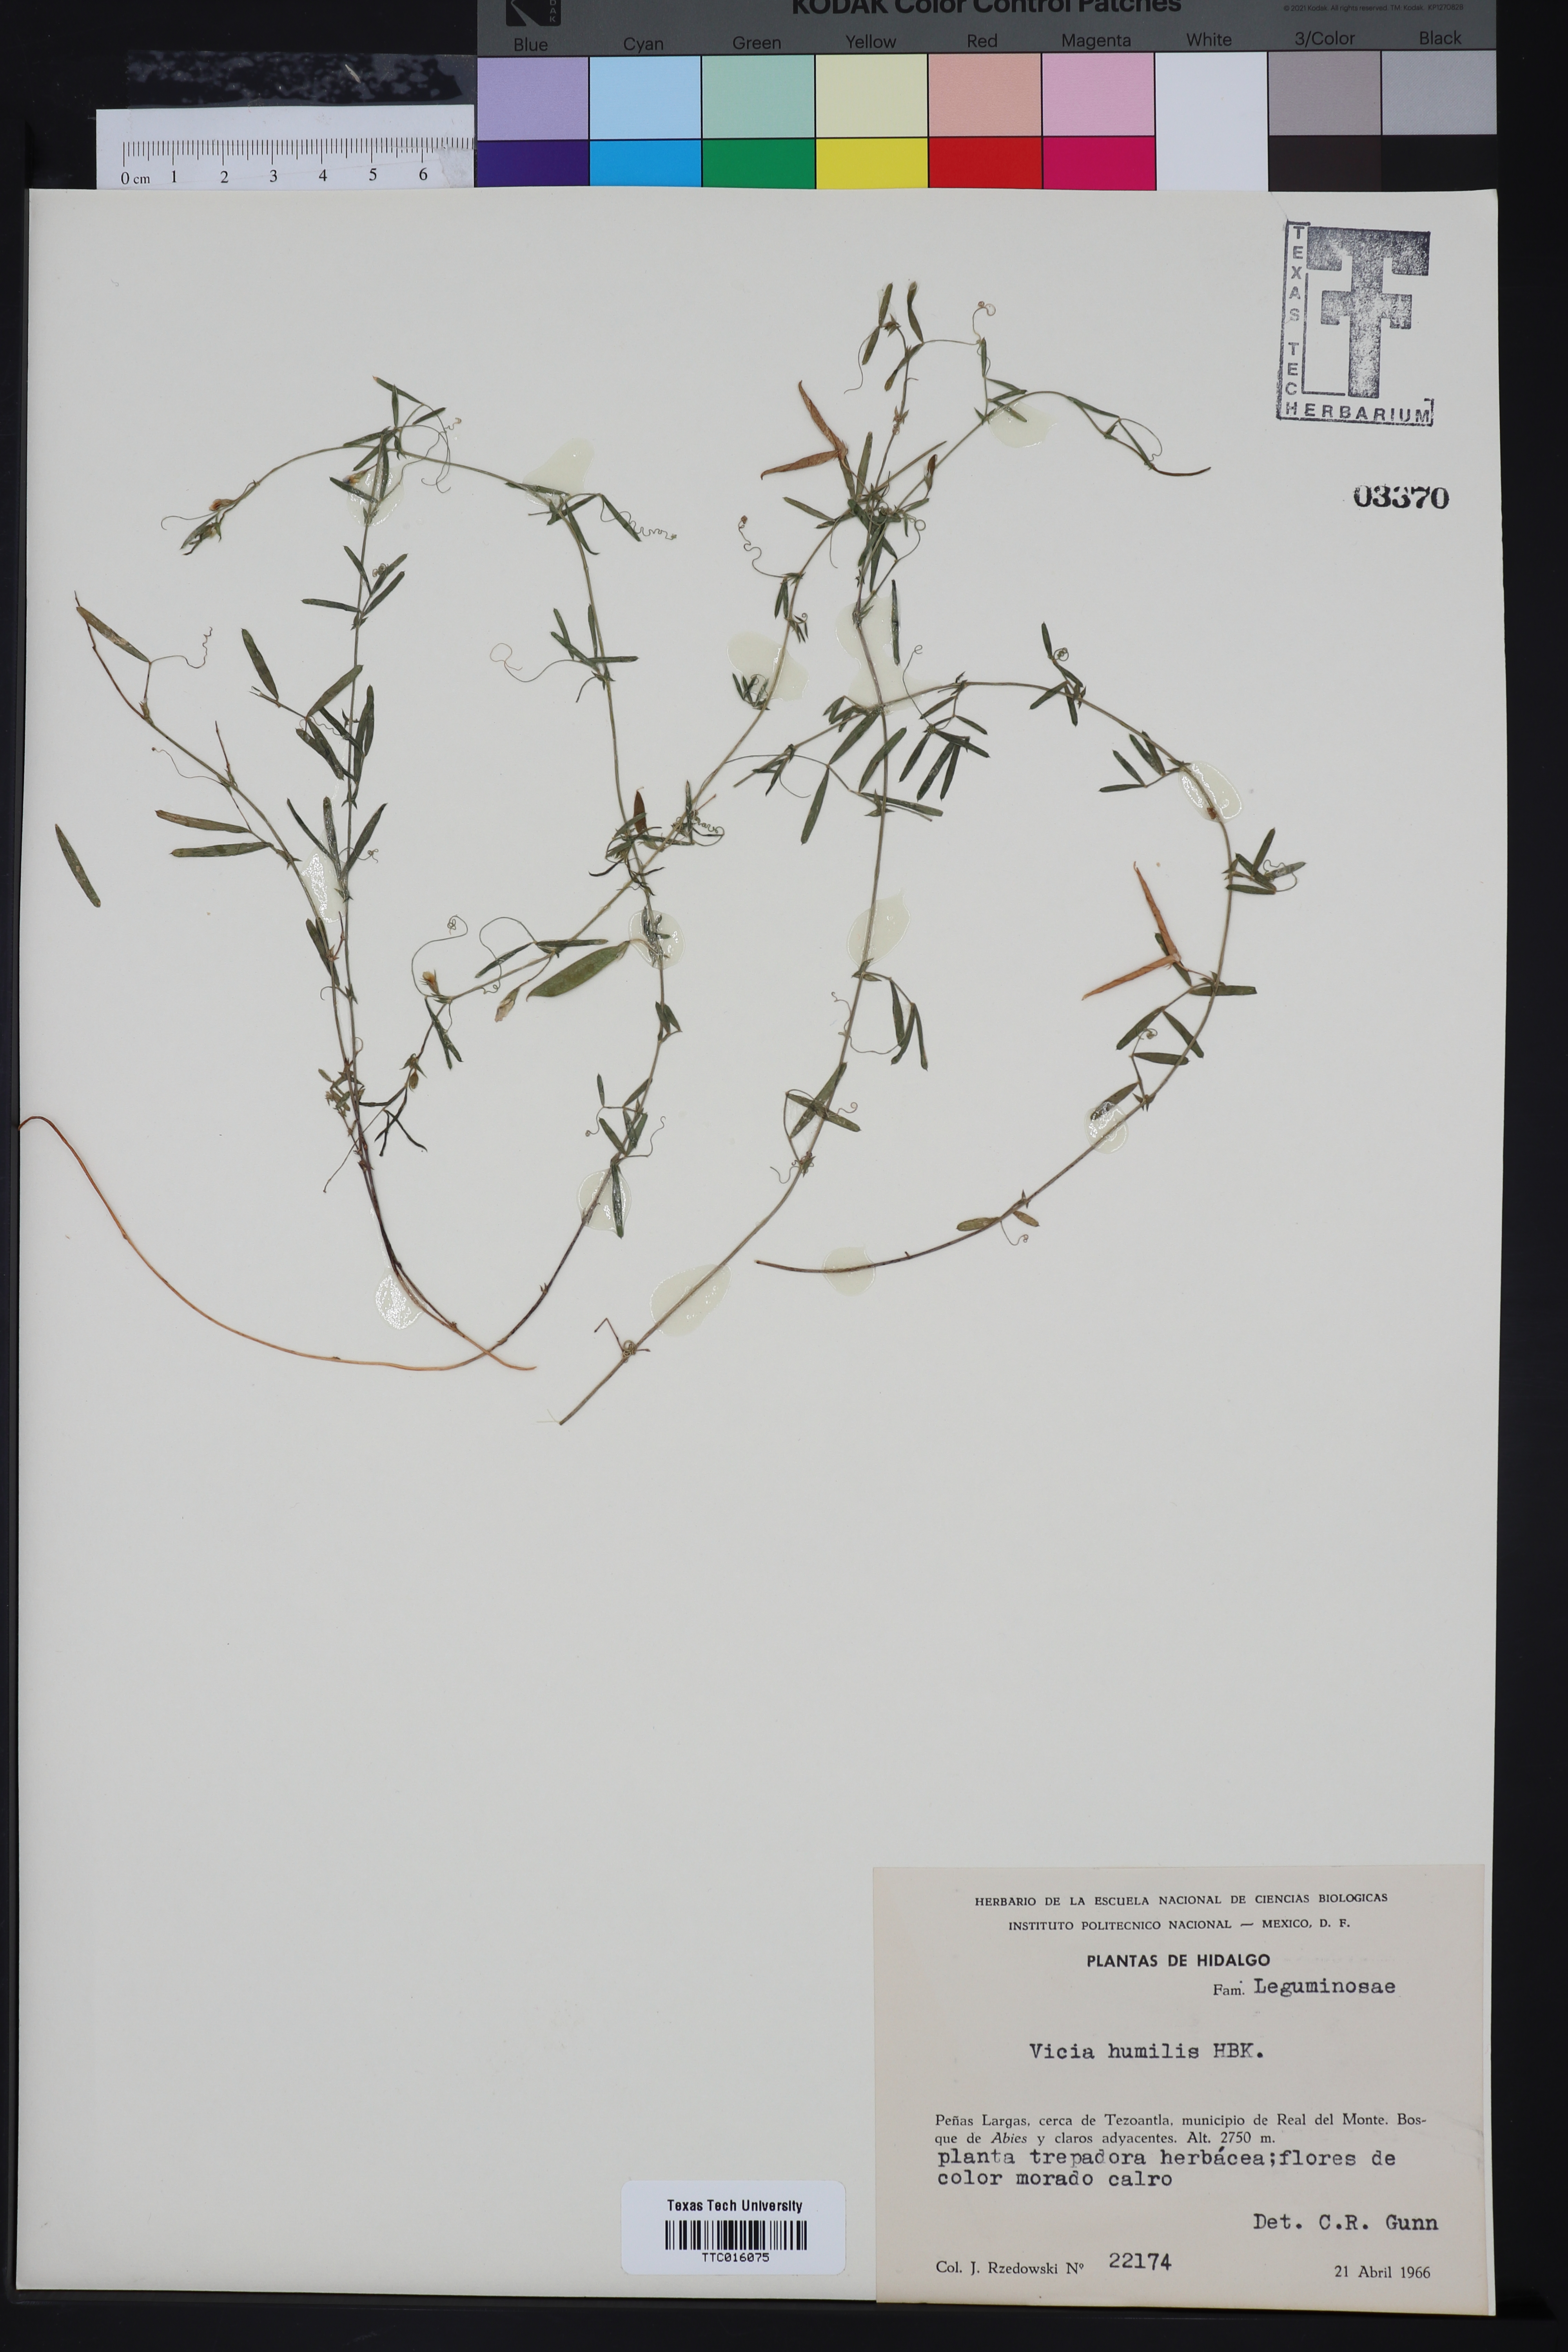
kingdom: Plantae
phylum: Tracheophyta
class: Magnoliopsida
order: Fabales
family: Fabaceae
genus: Vicia
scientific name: Vicia humilis
